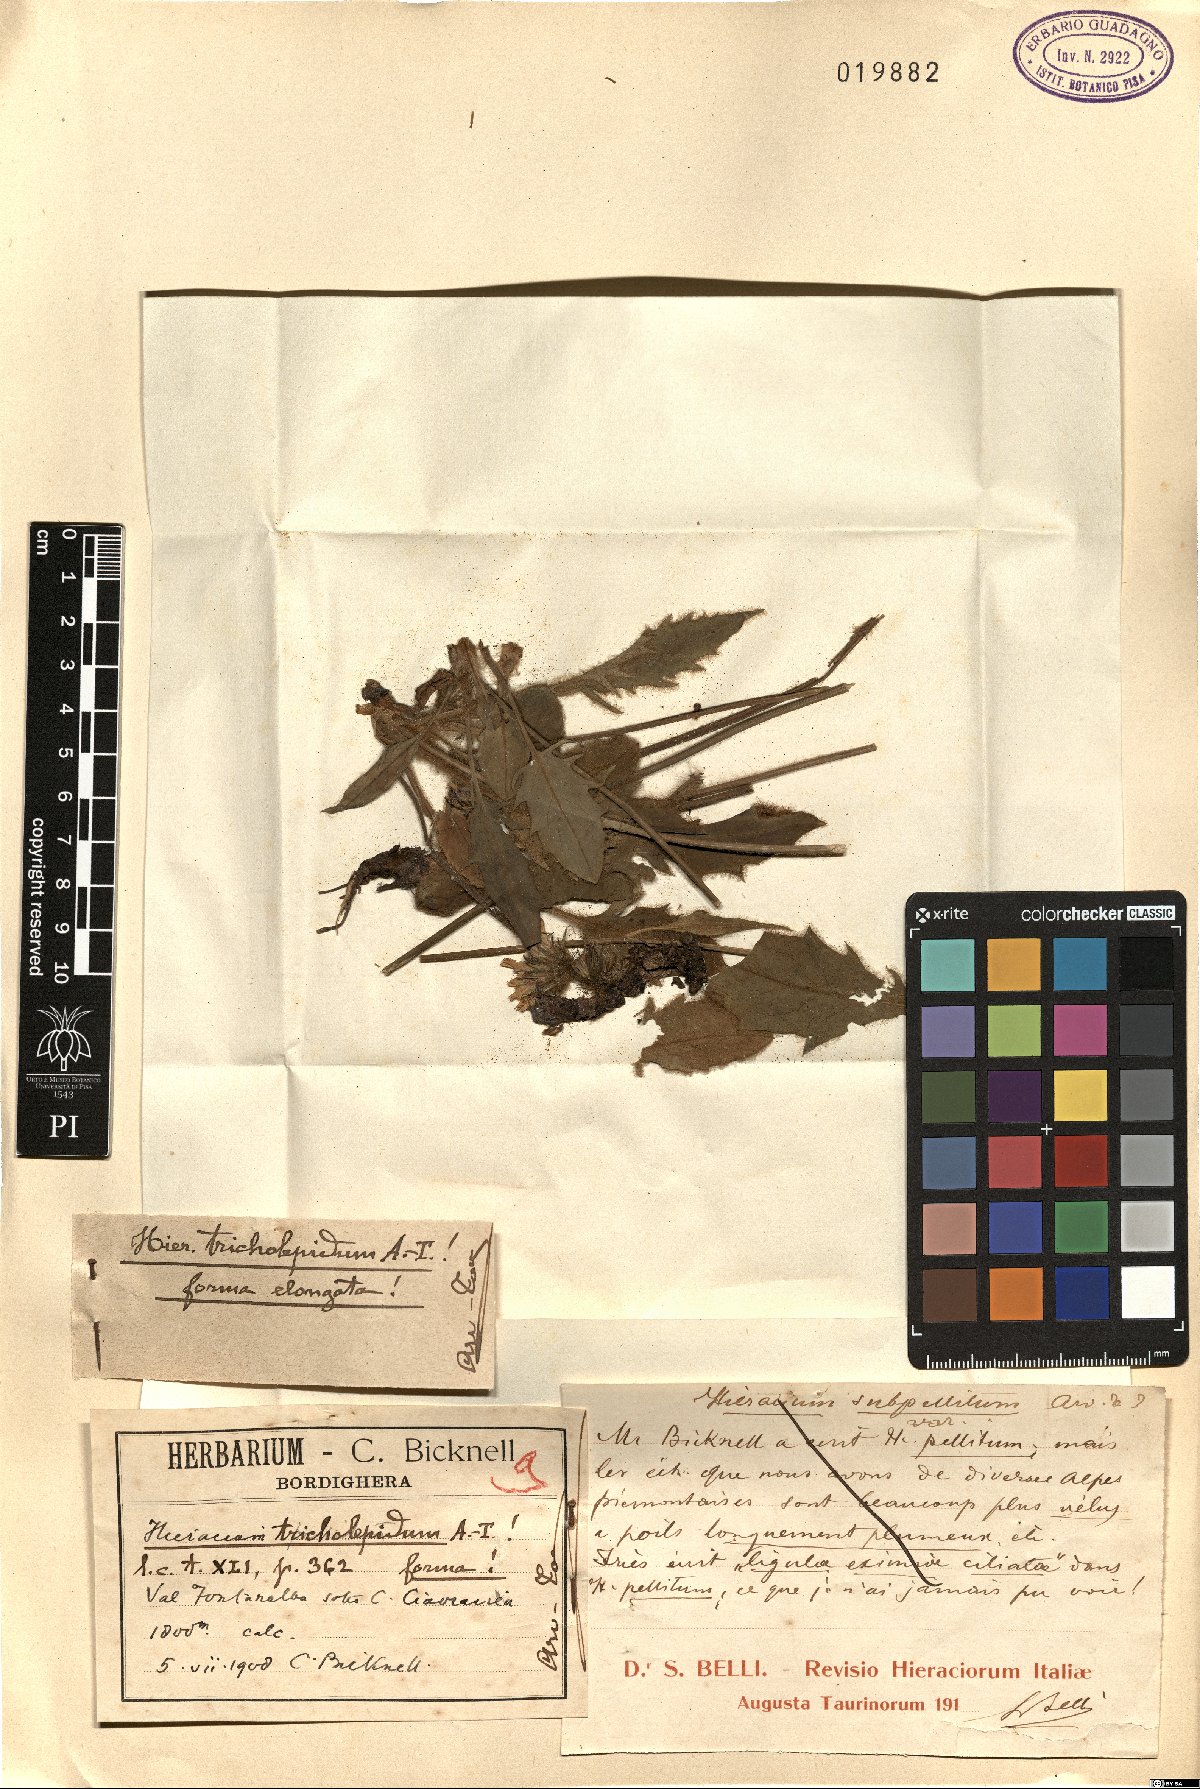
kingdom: Plantae
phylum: Tracheophyta
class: Magnoliopsida
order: Asterales
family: Asteraceae
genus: Hieracium
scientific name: Hieracium cephalotes
